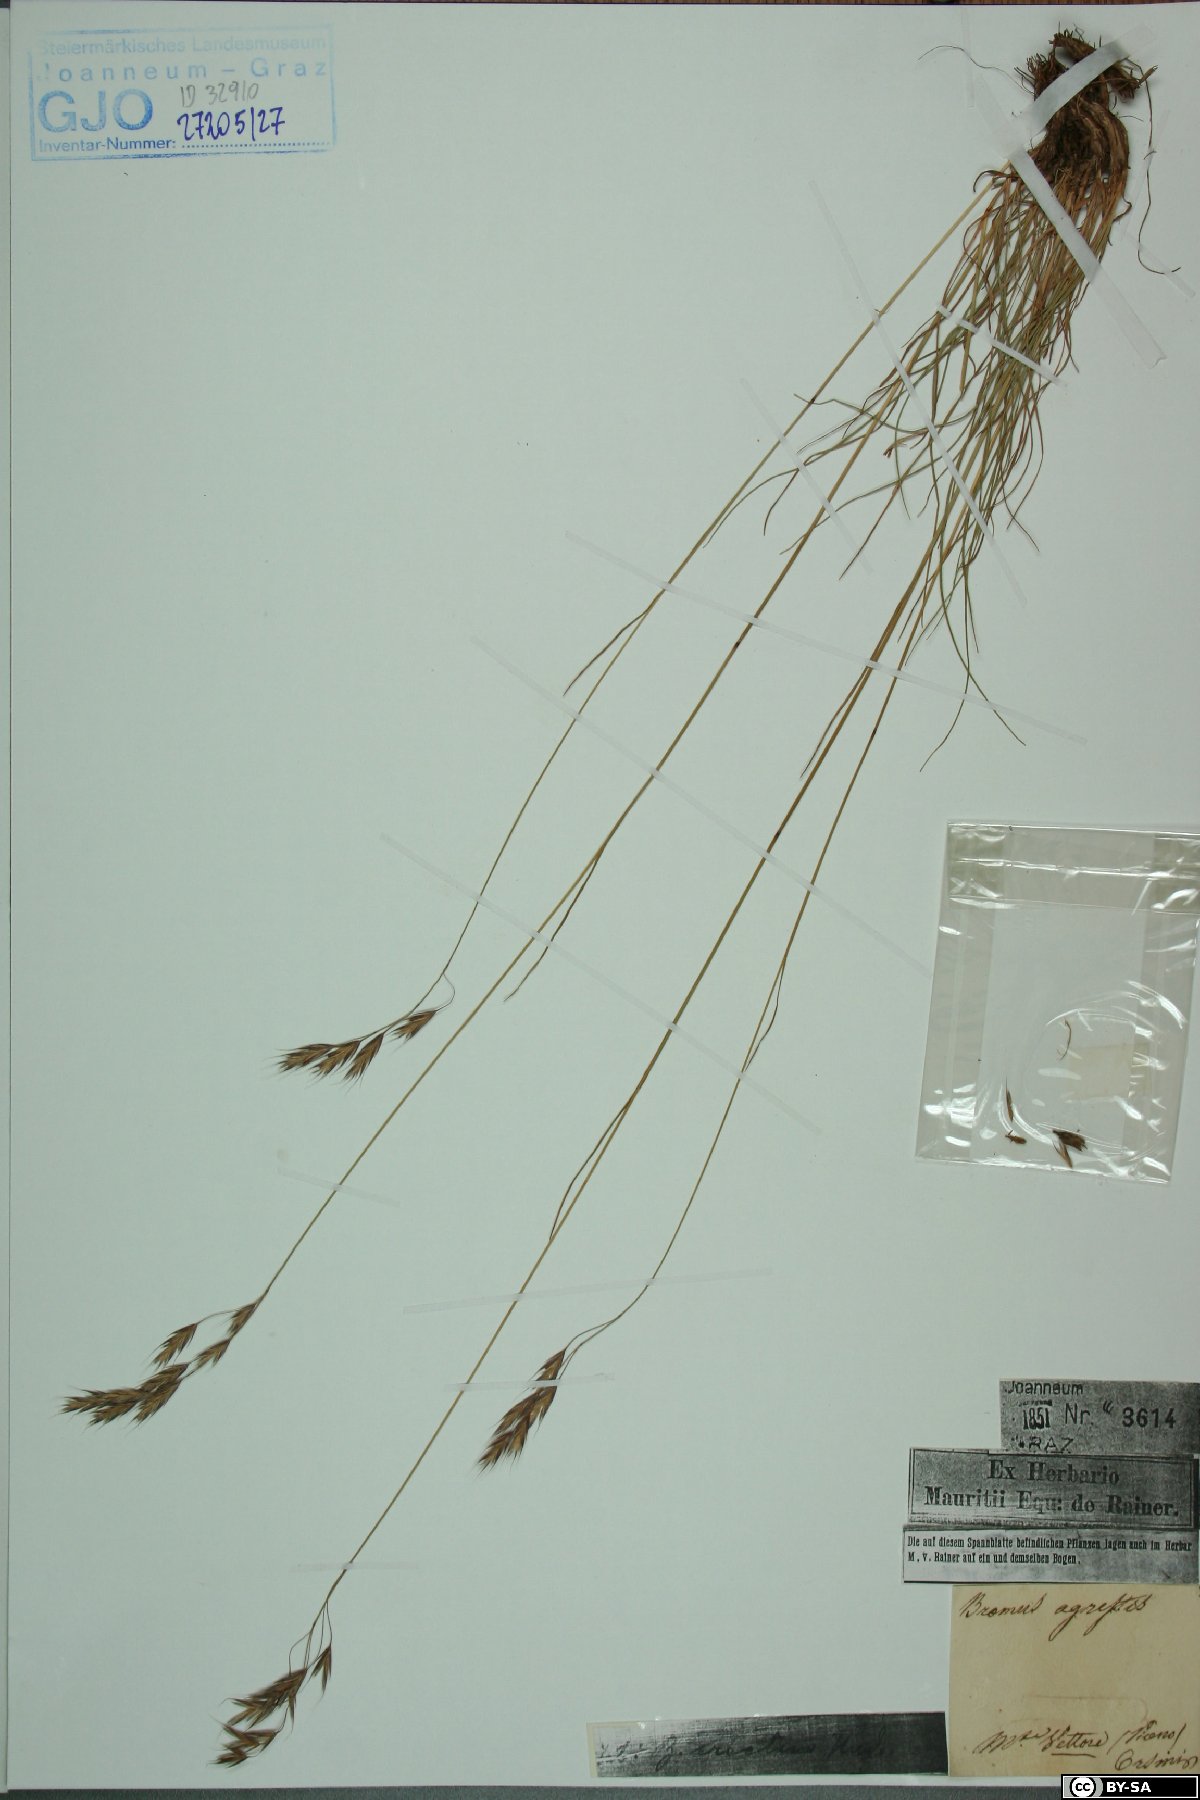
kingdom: Plantae
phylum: Tracheophyta
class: Liliopsida
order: Poales
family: Poaceae
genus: Bromus
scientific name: Bromus erectus
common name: Erect brome
